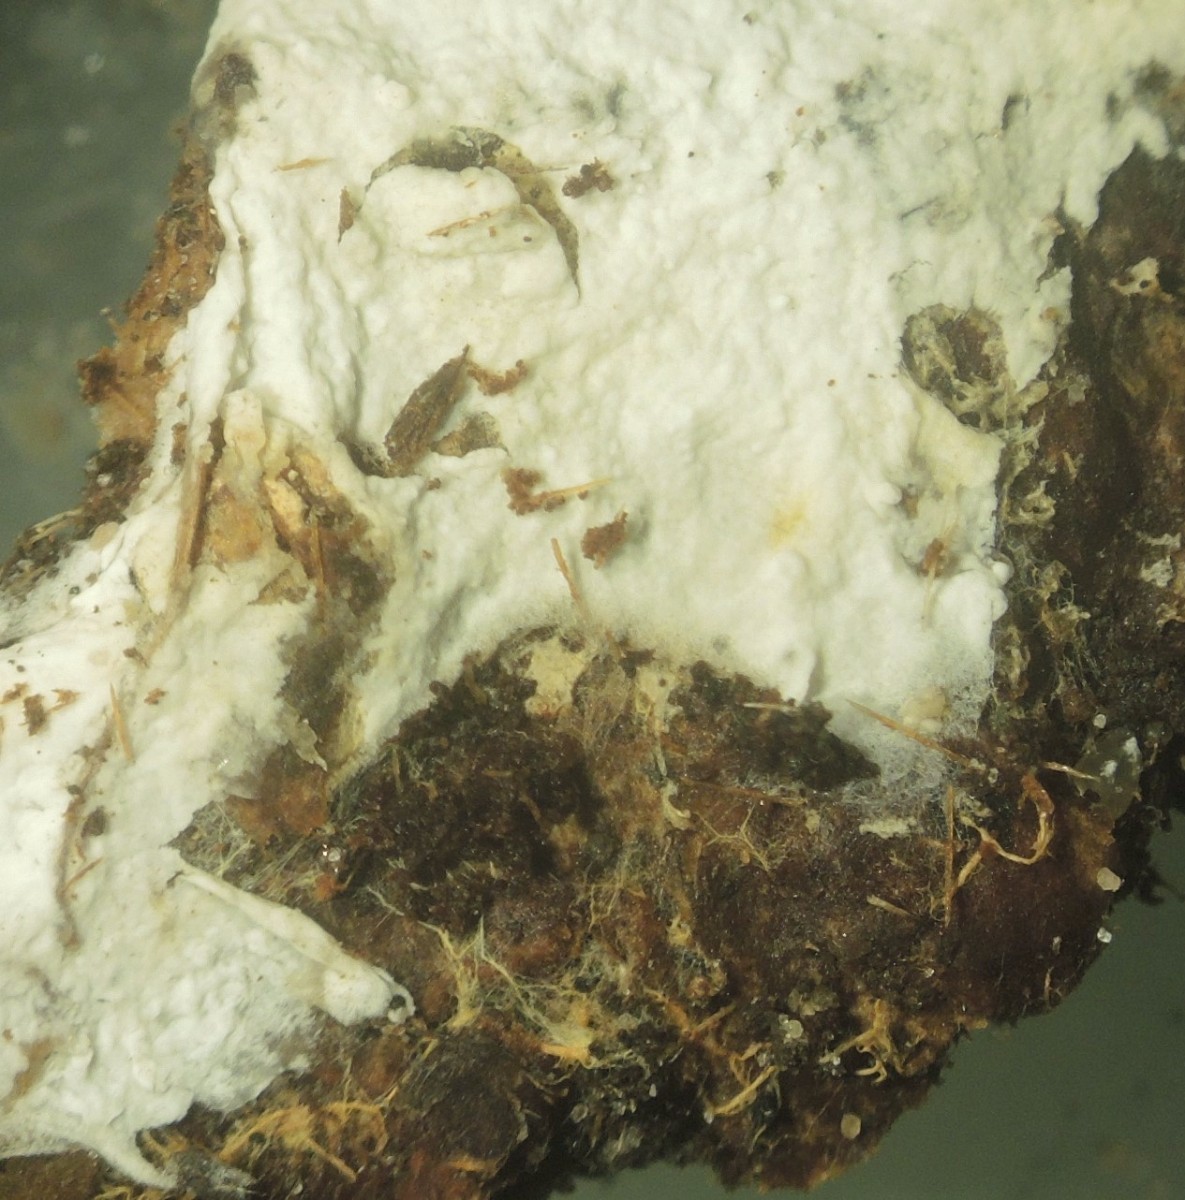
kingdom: Fungi
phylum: Basidiomycota
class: Agaricomycetes
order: Atheliales
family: Atheliaceae
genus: Leptosporomyces
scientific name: Leptosporomyces fuscostratus
